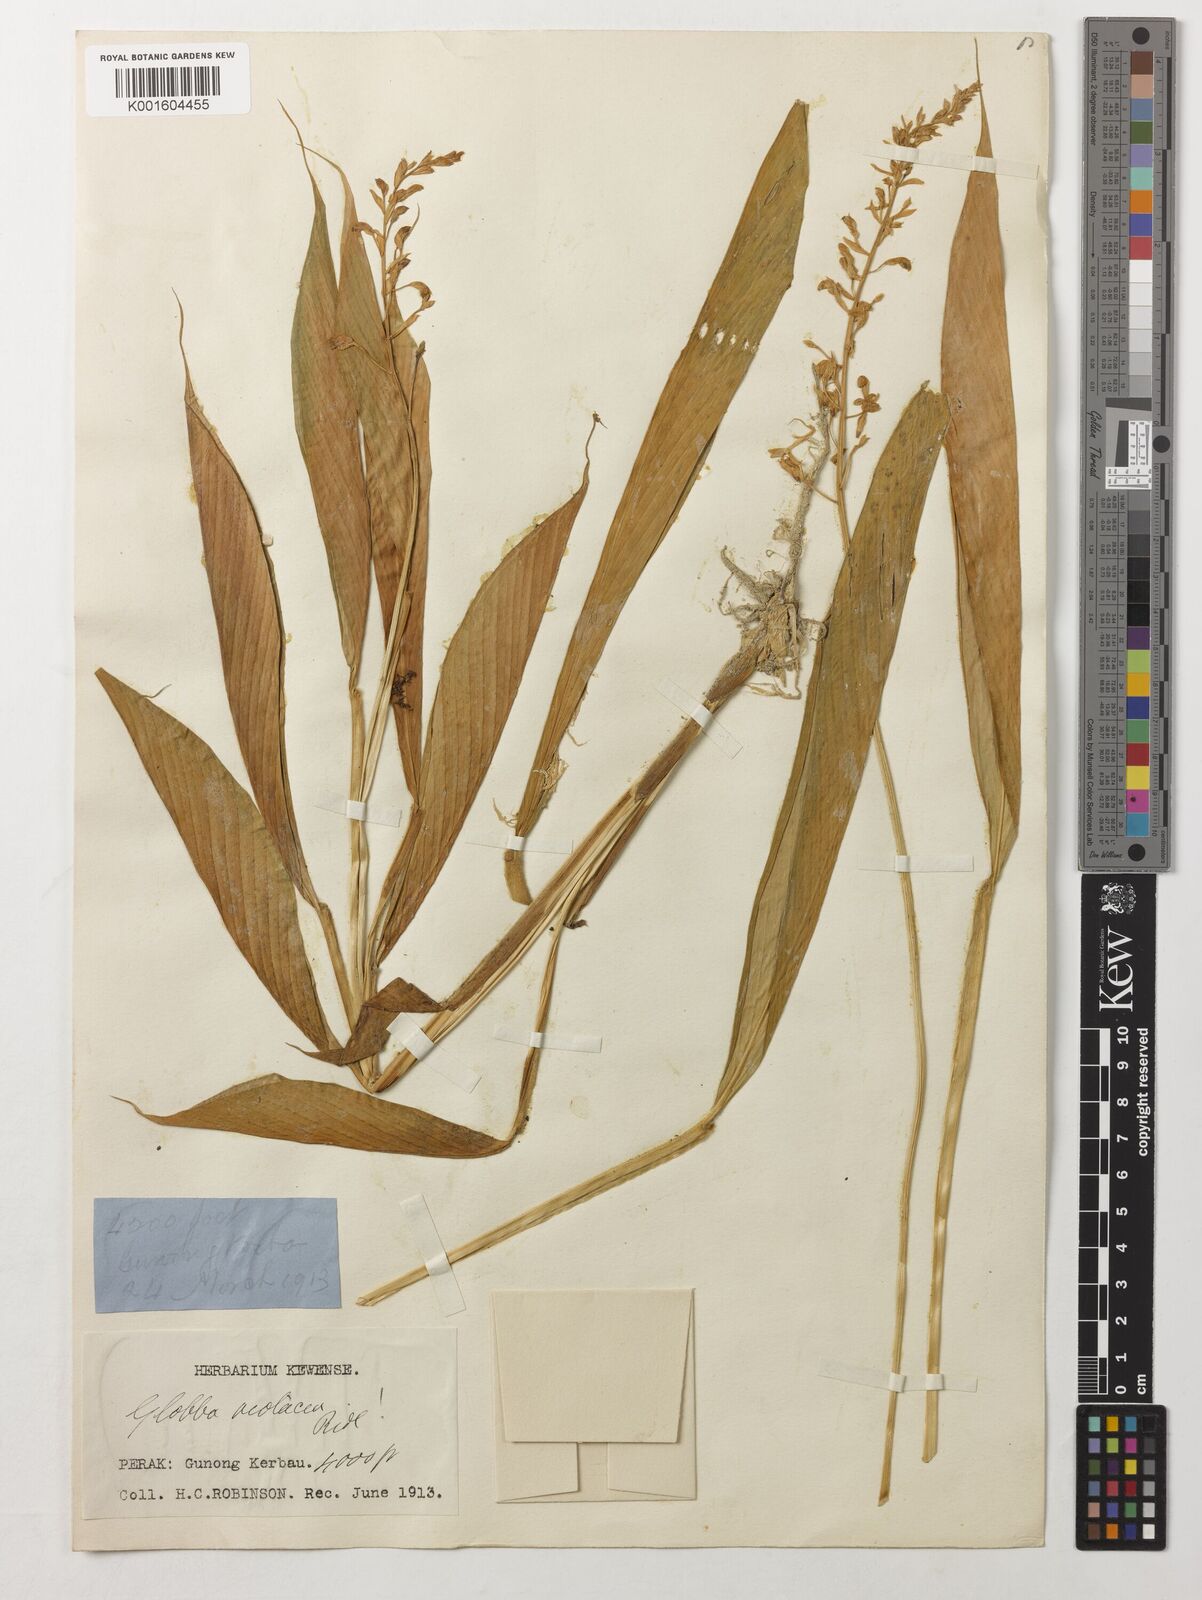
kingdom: Plantae
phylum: Tracheophyta
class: Liliopsida
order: Zingiberales
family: Zingiberaceae
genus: Globba
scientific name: Globba leucantha
